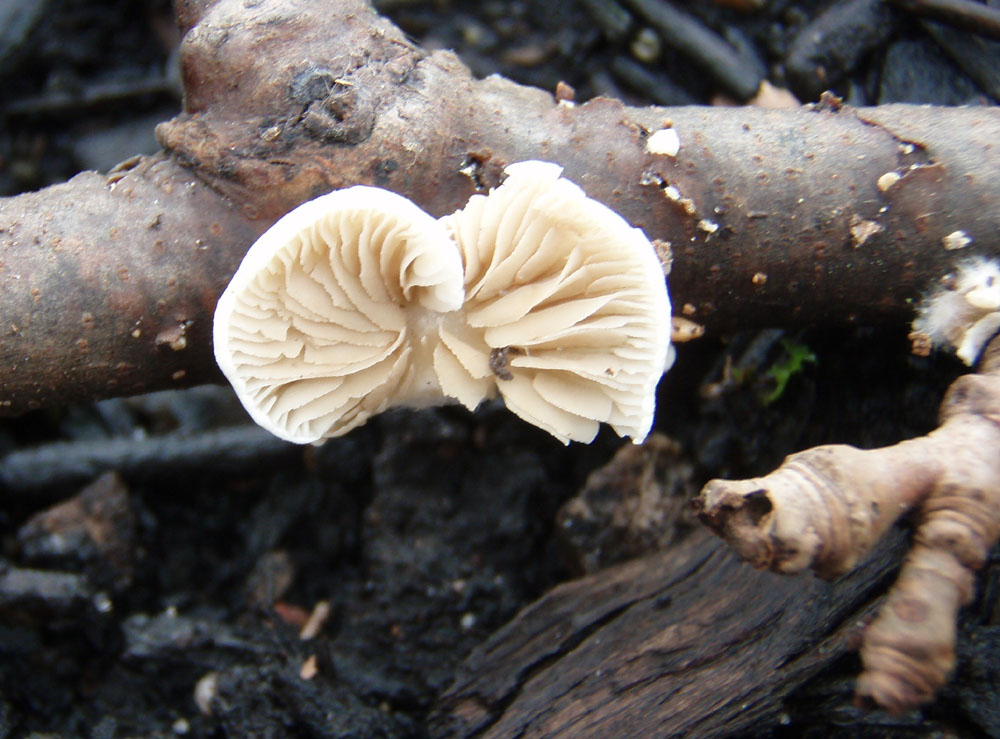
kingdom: Fungi
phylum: Basidiomycota
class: Agaricomycetes
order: Agaricales
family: Crepidotaceae
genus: Crepidotus
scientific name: Crepidotus caspari
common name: Lundells muslingesvamp
